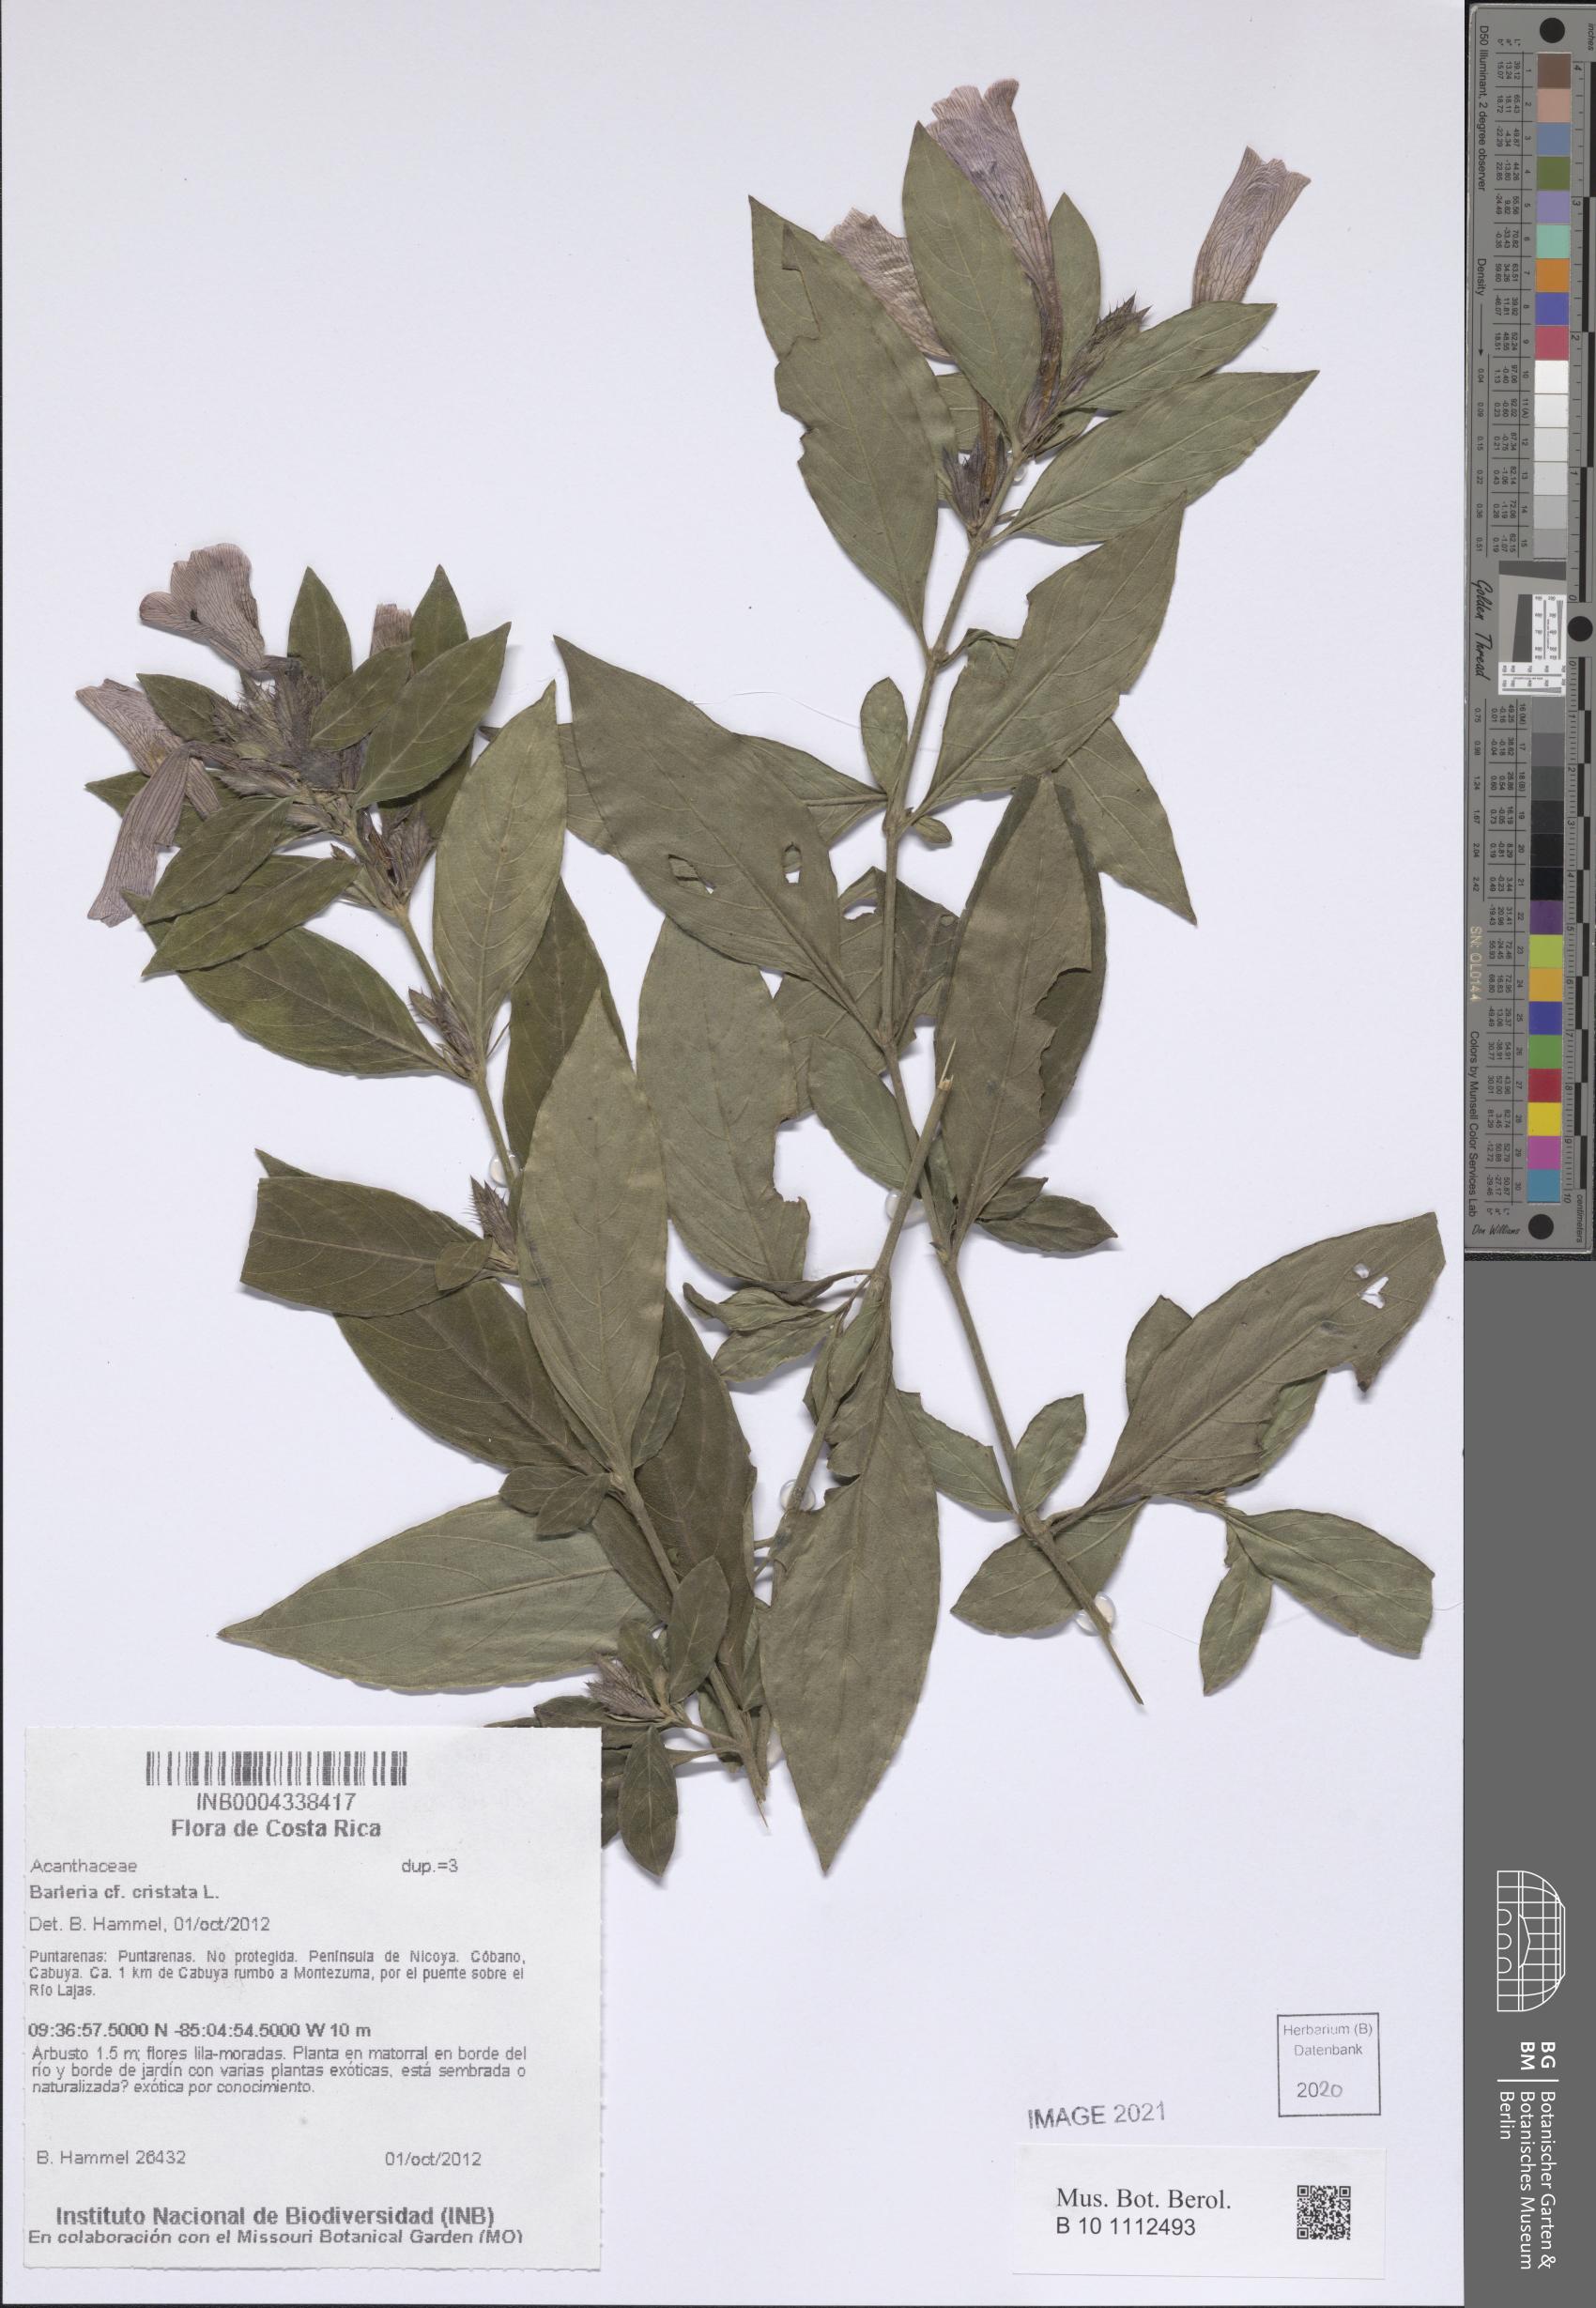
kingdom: Plantae
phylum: Tracheophyta
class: Magnoliopsida
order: Lamiales
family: Acanthaceae
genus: Barleria
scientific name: Barleria cristata
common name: Crested philippine violet
